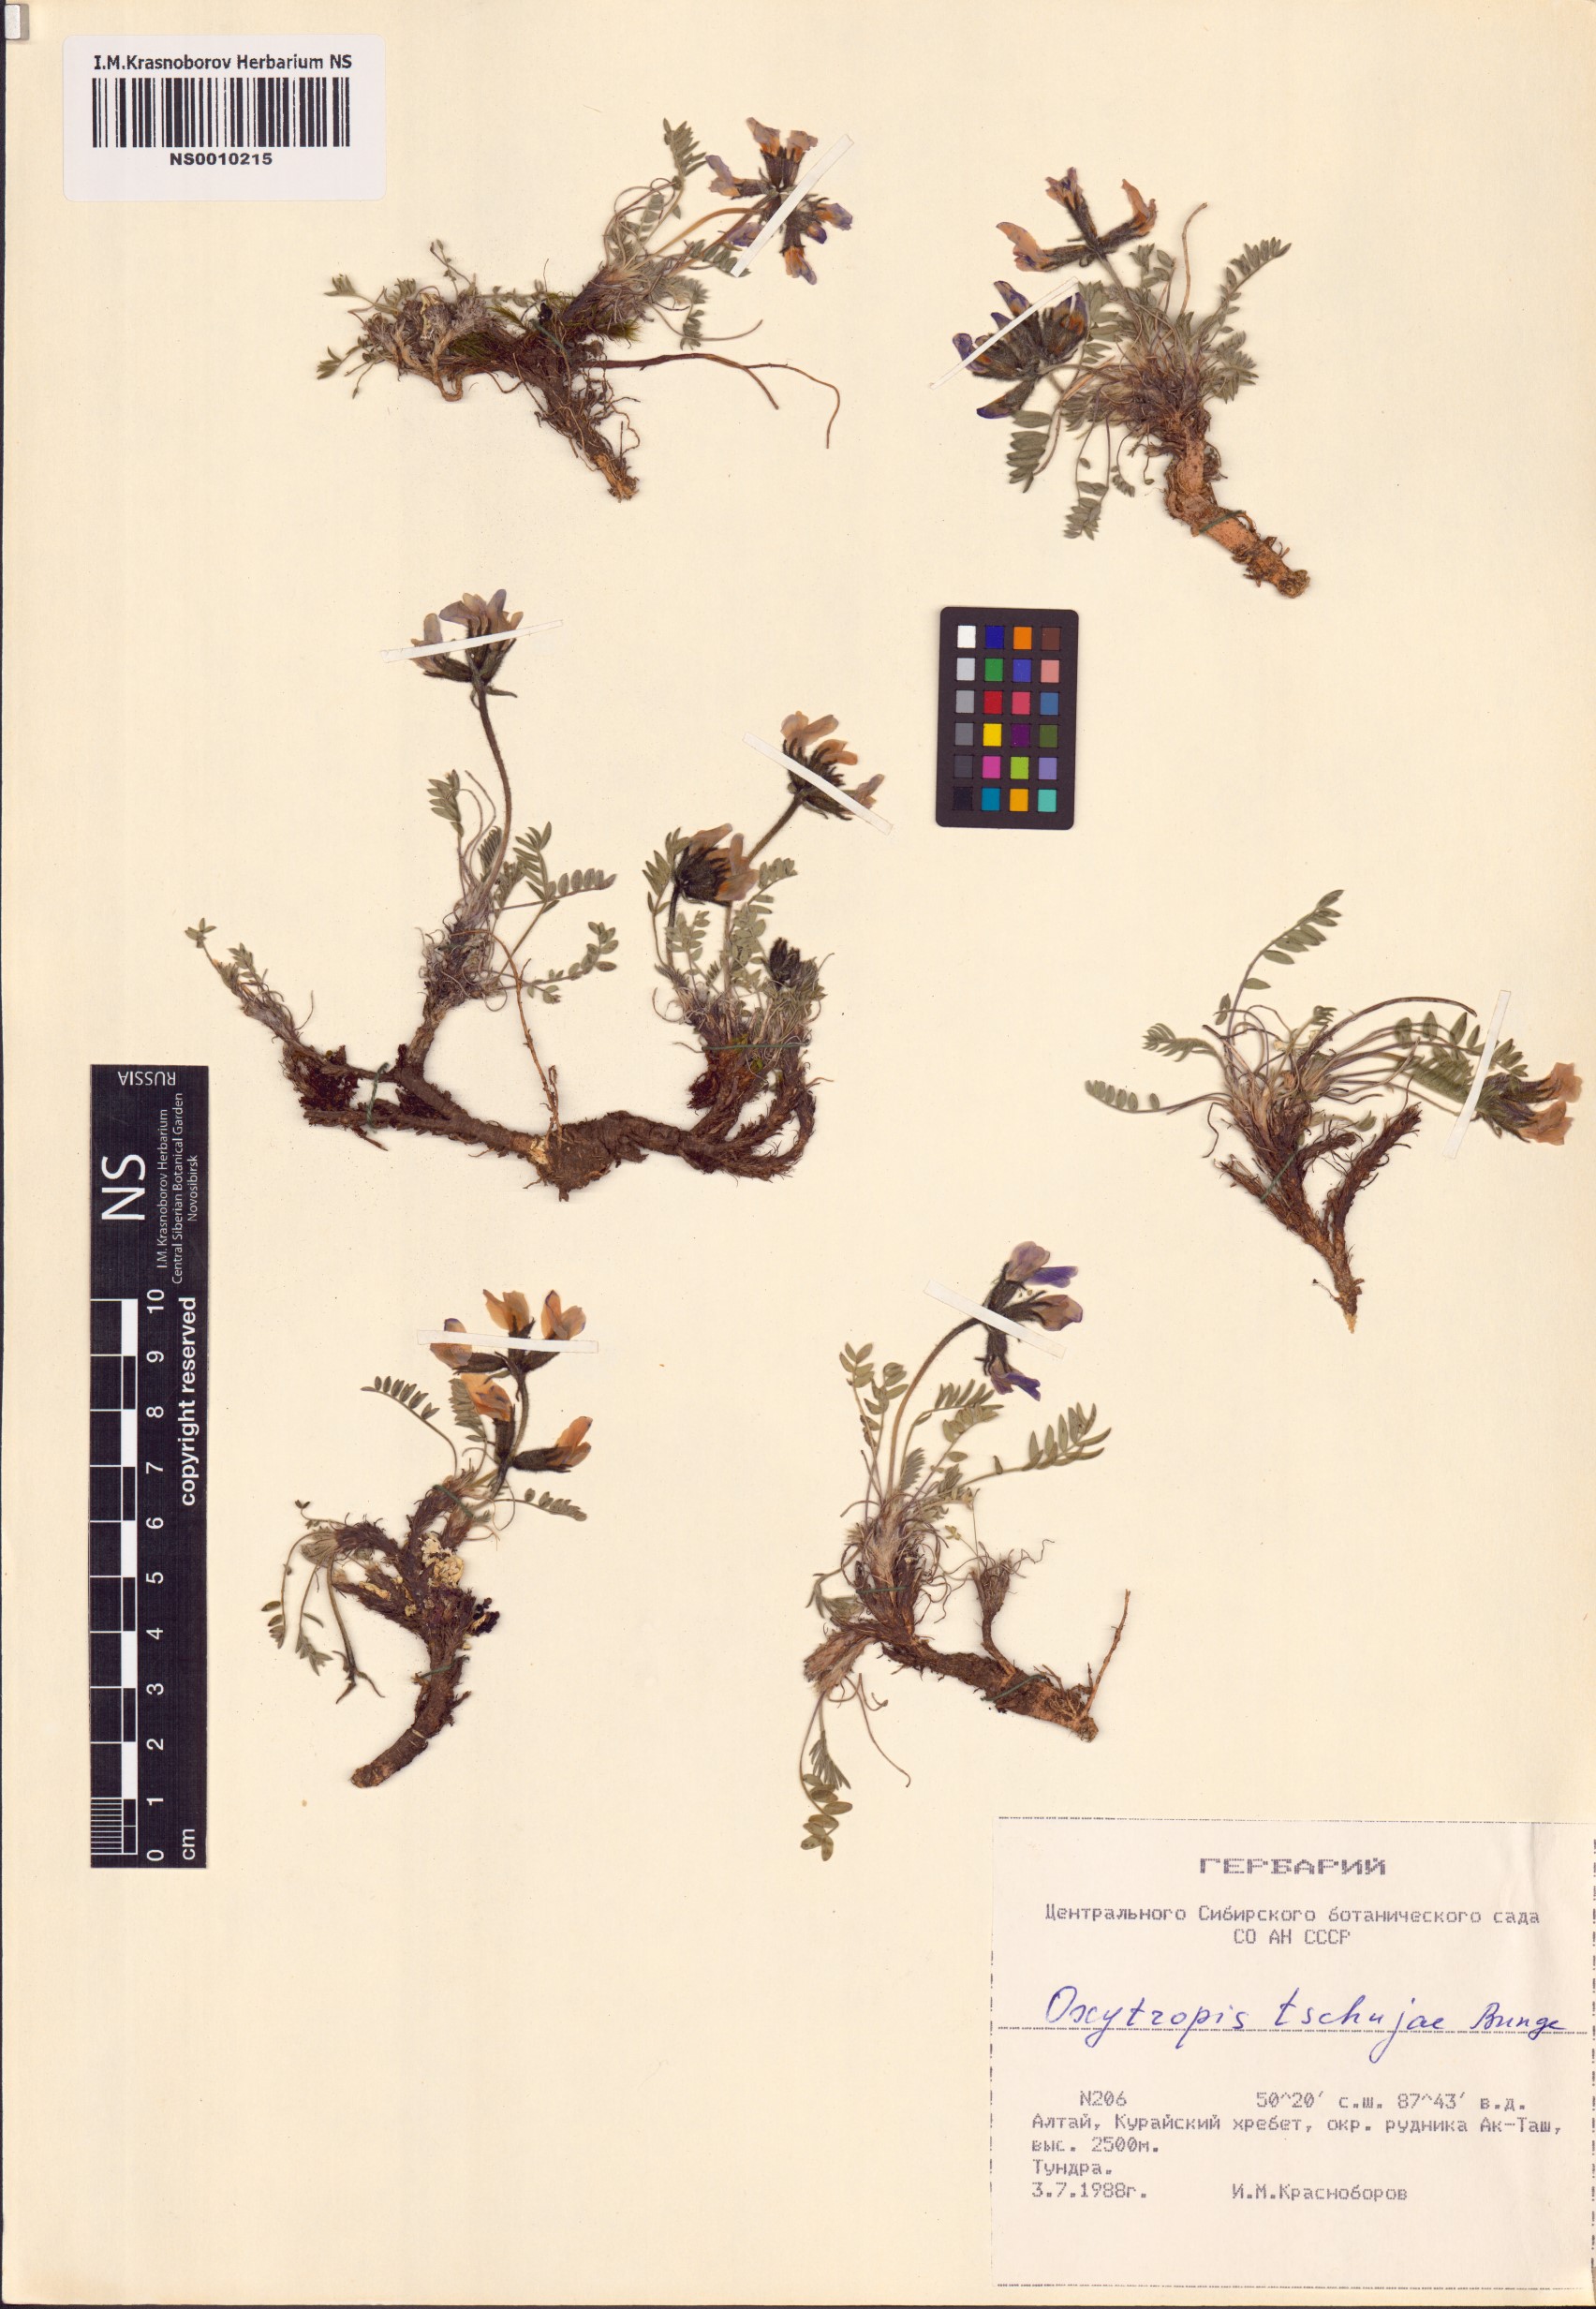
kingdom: Plantae
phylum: Tracheophyta
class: Magnoliopsida
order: Fabales
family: Fabaceae
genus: Oxytropis
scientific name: Oxytropis tschujae
